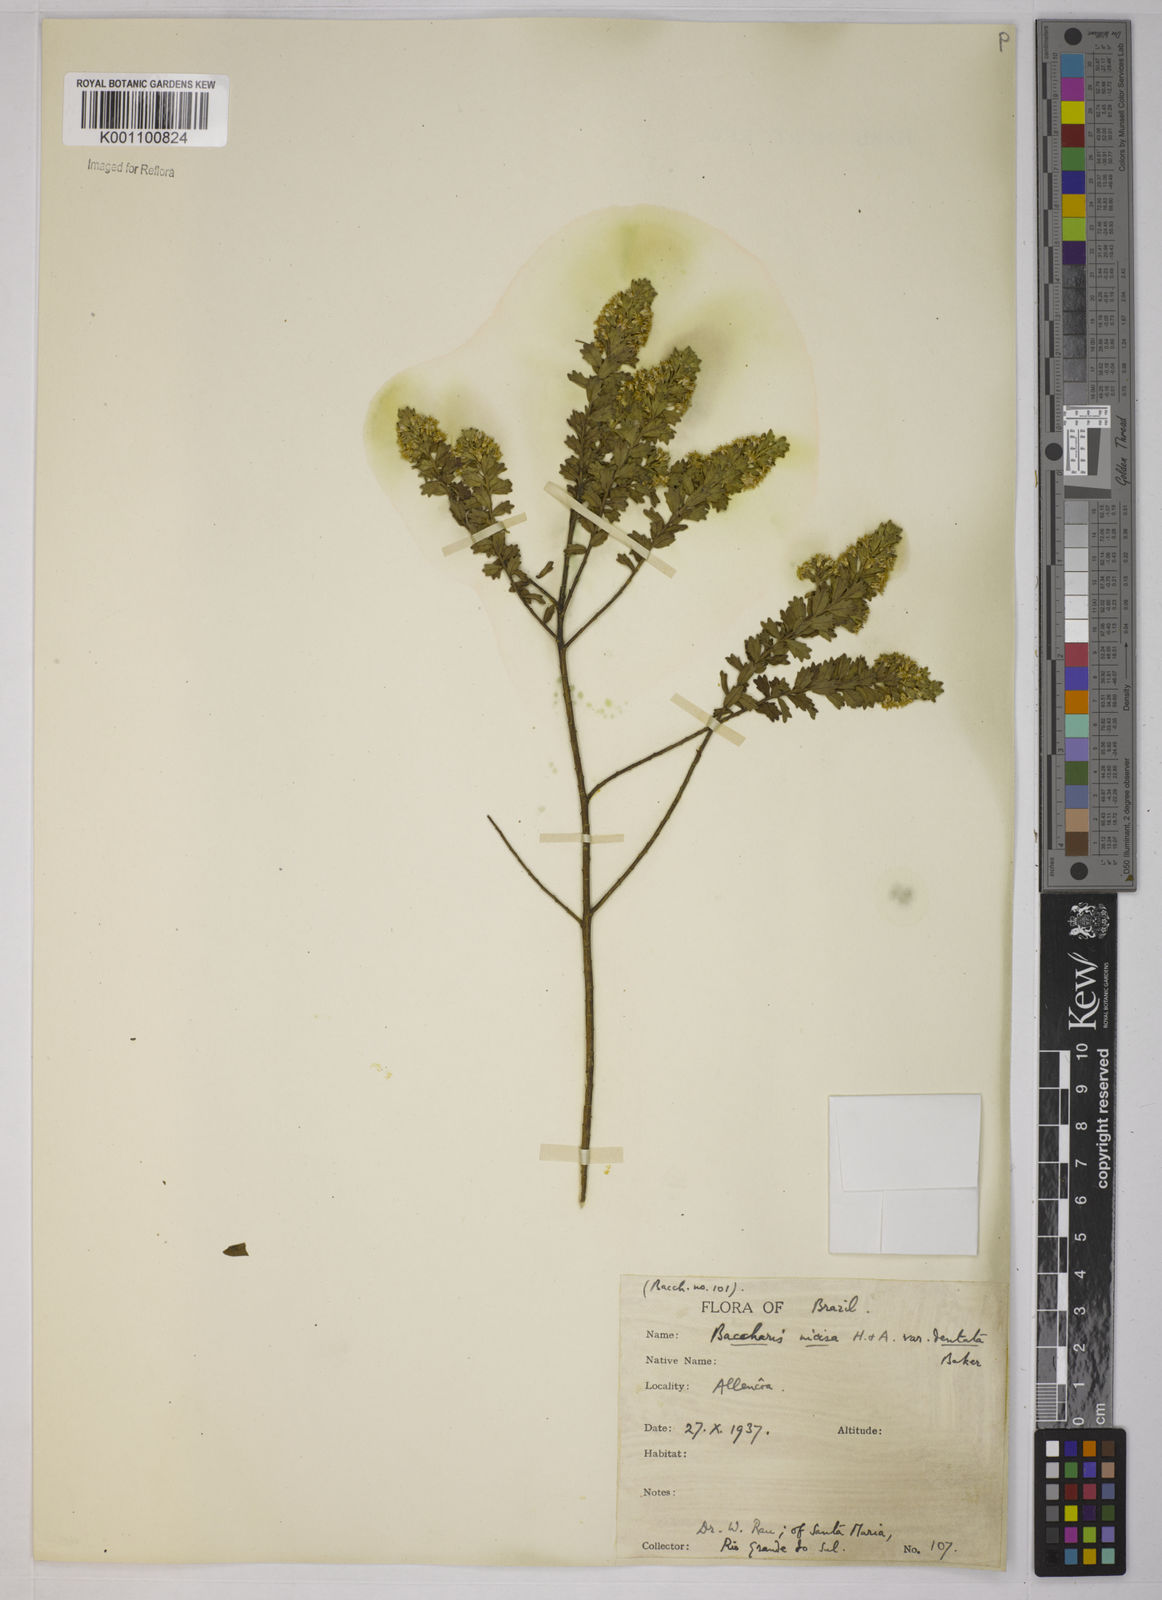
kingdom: Plantae
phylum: Tracheophyta
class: Magnoliopsida
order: Asterales
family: Asteraceae
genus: Baccharis
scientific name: Baccharis incisa
